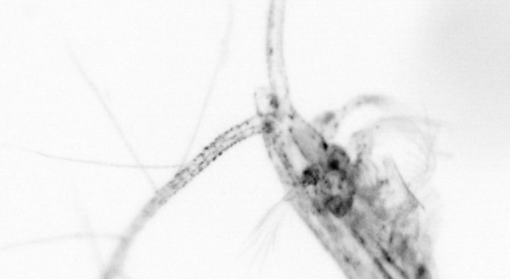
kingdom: Animalia
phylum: Arthropoda
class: Copepoda
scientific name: Copepoda
